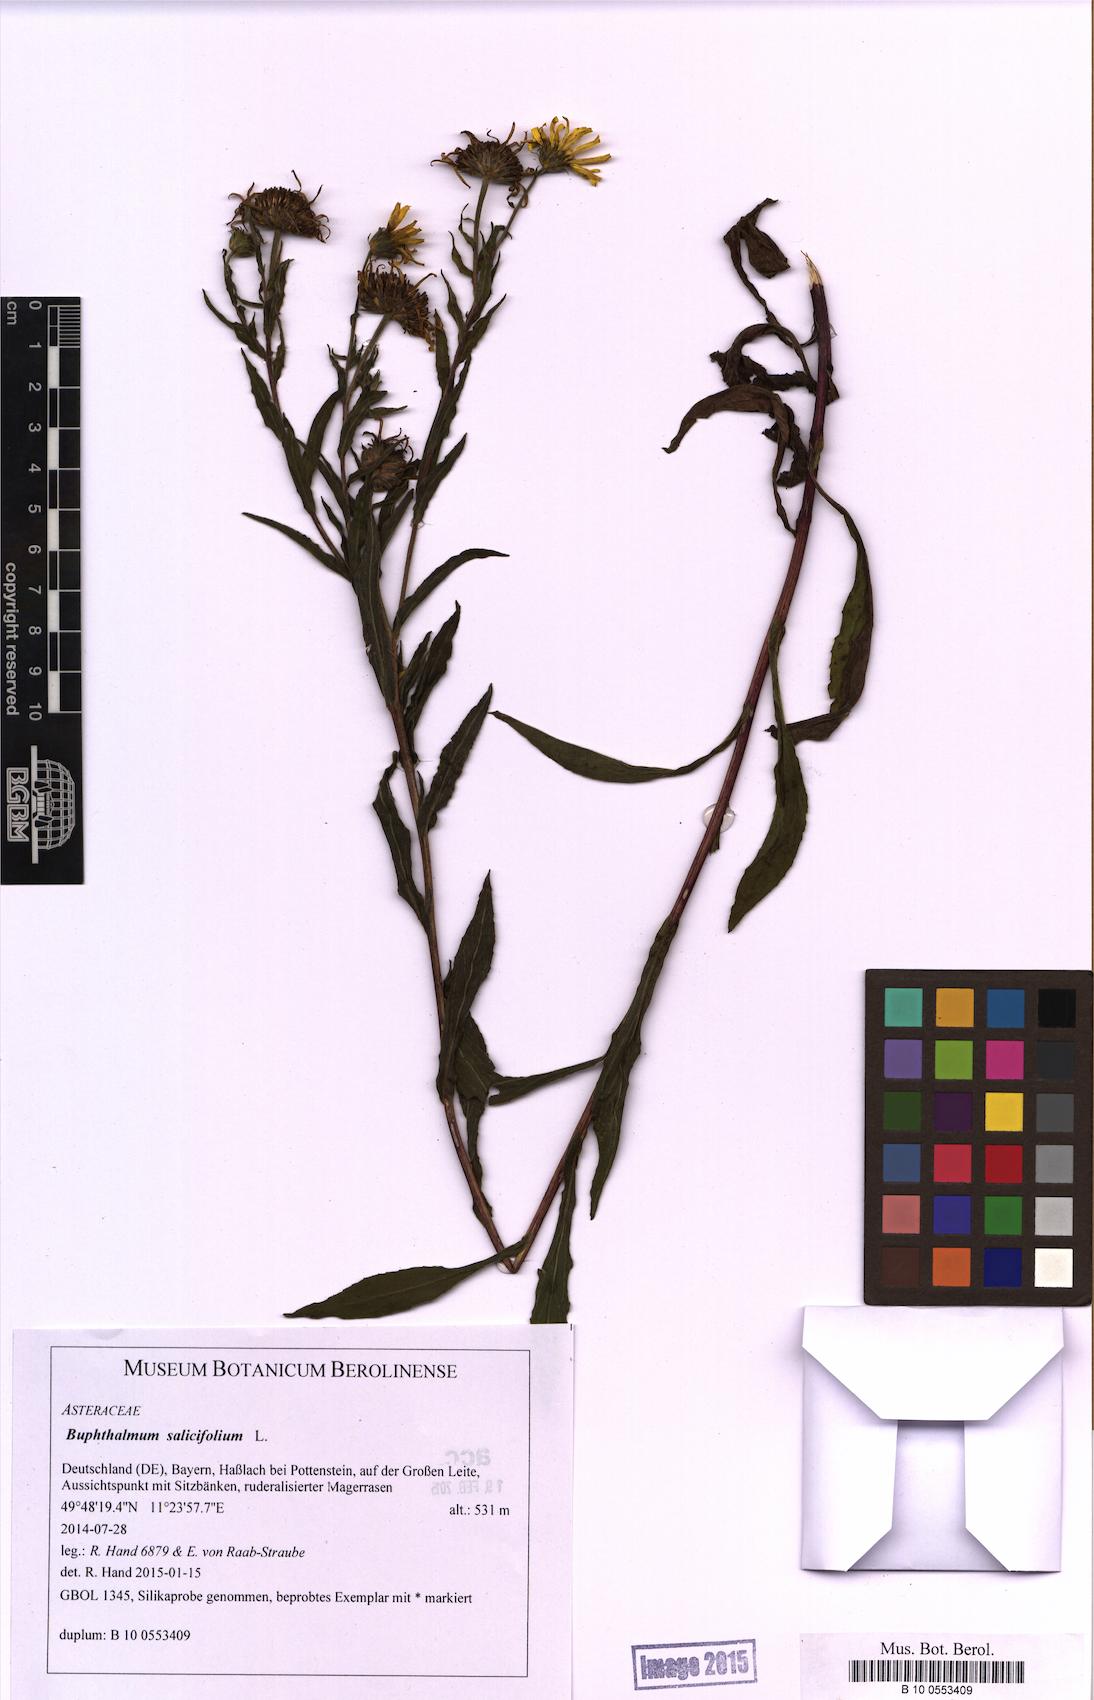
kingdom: Plantae
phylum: Tracheophyta
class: Magnoliopsida
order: Asterales
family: Asteraceae
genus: Buphthalmum
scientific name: Buphthalmum salicifolium
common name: Willow-leaved yellow-oxeye
